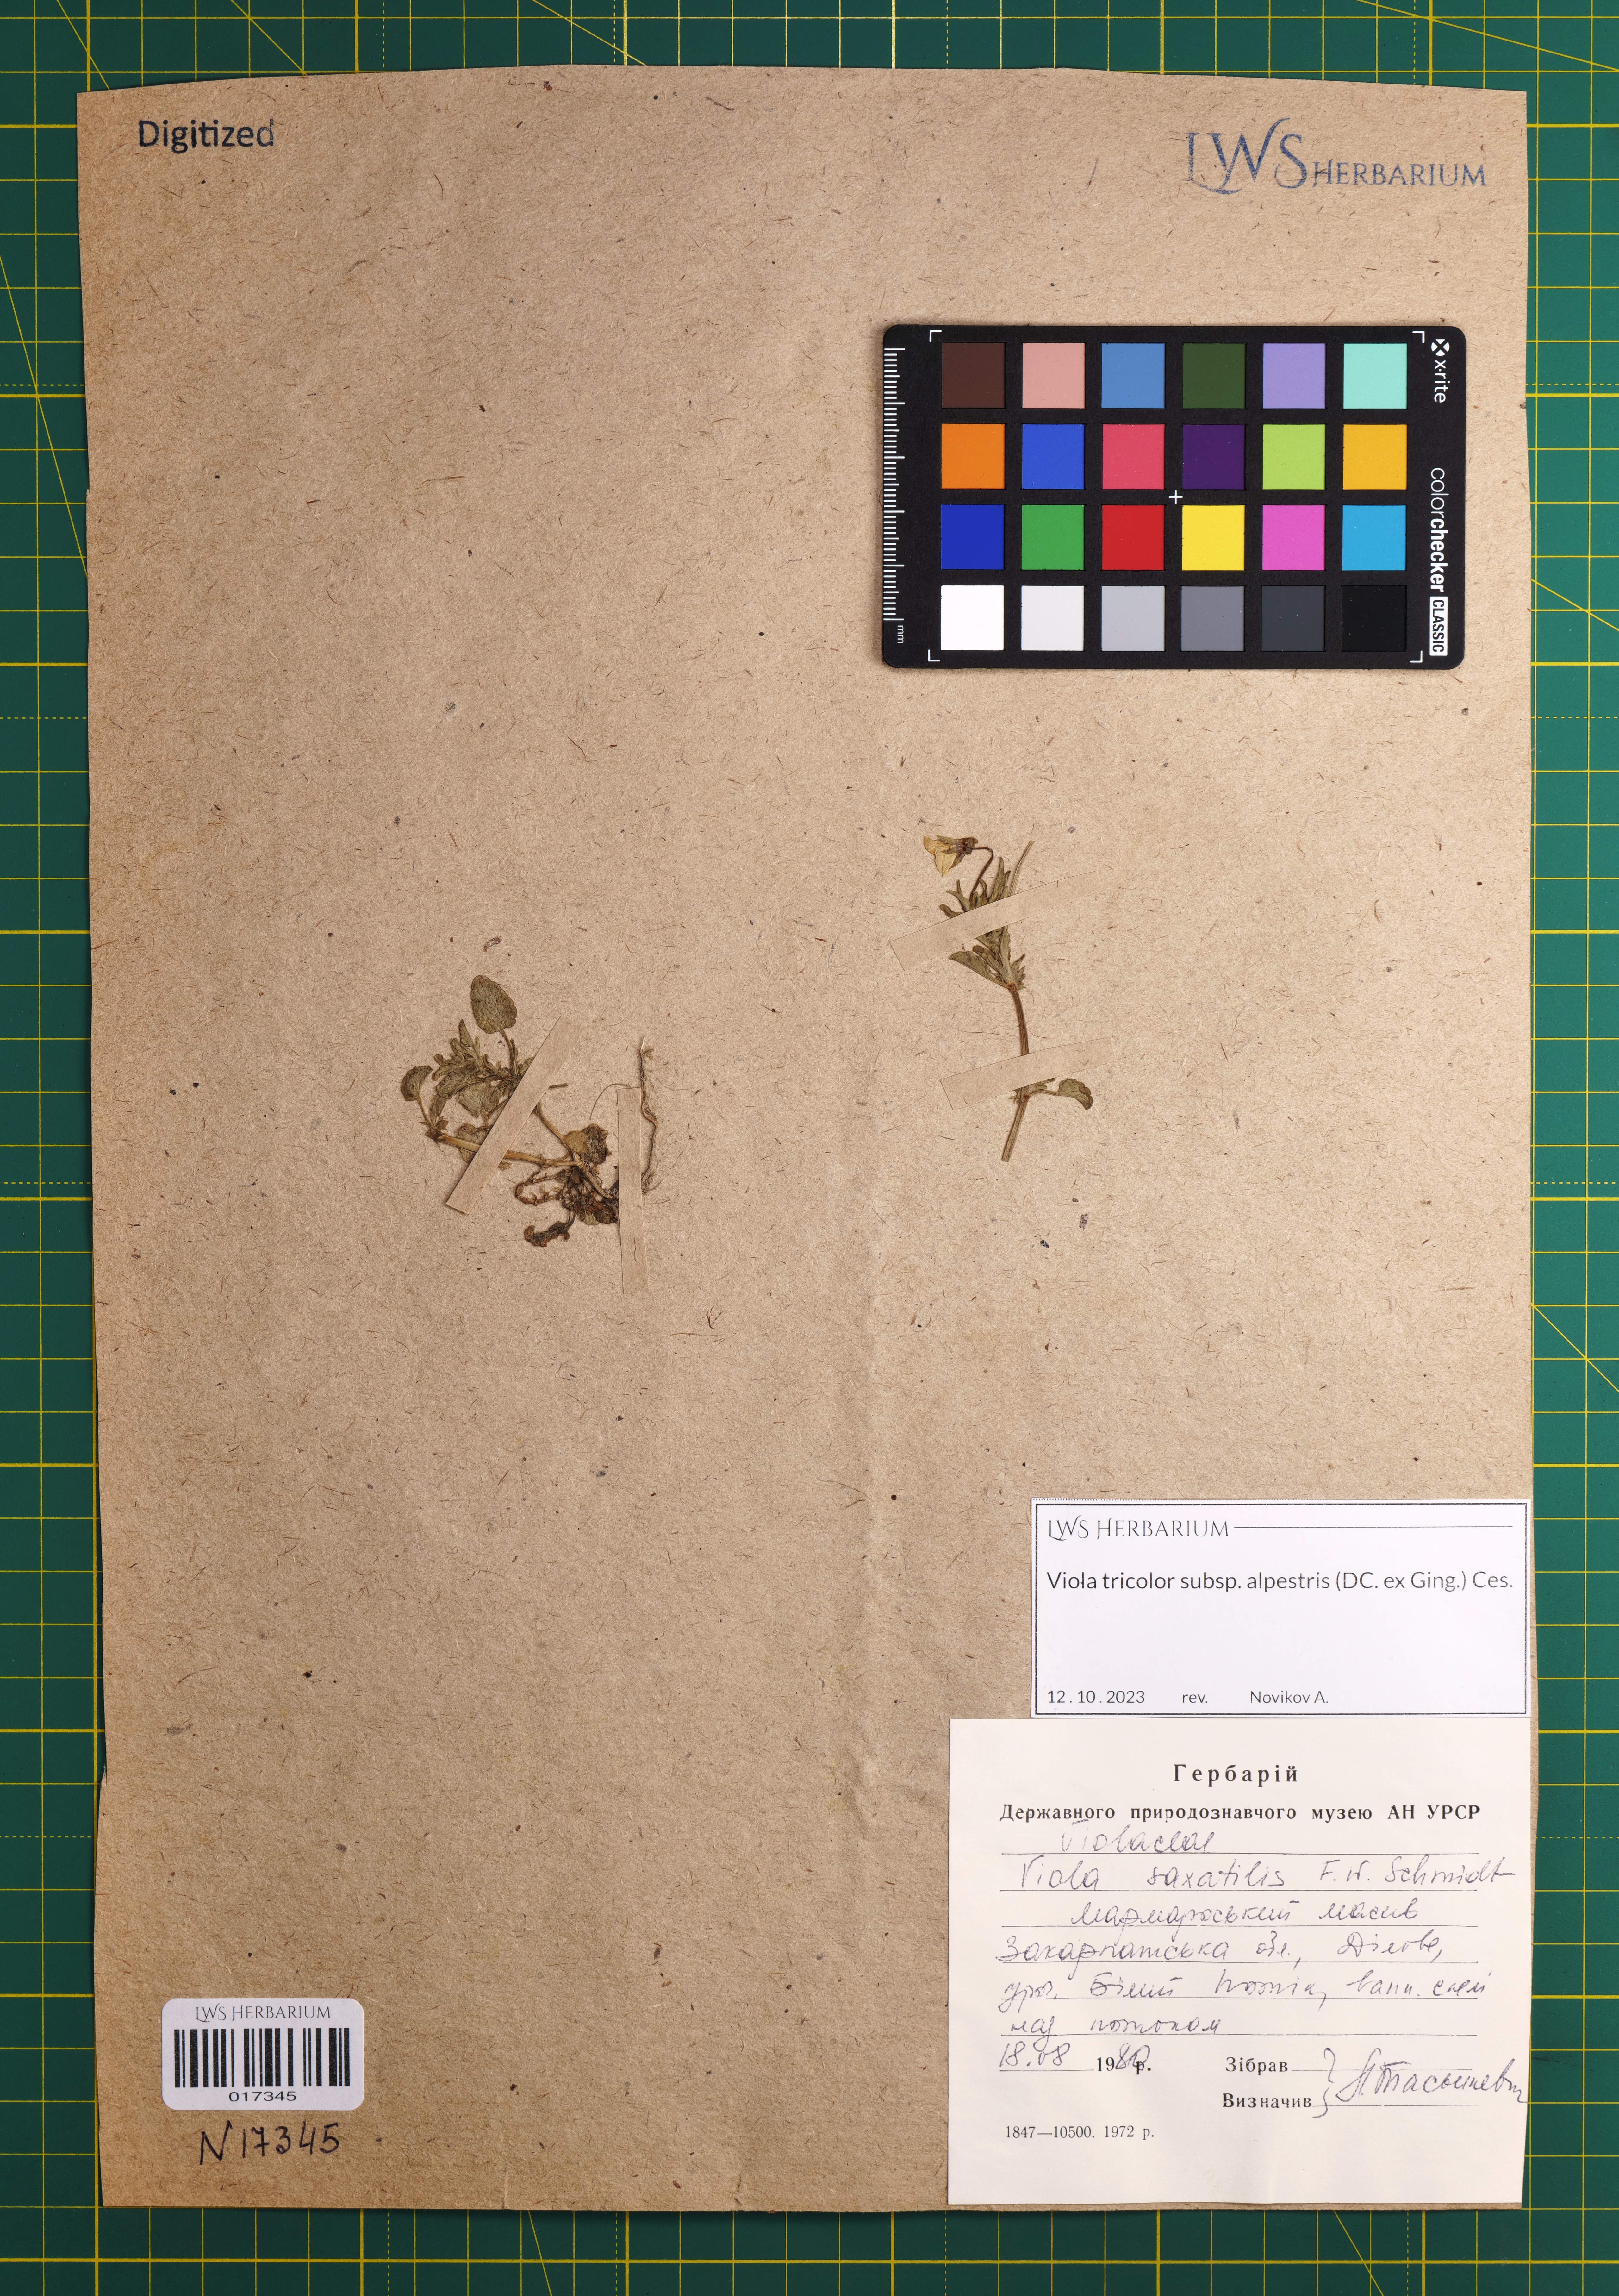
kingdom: Plantae
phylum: Tracheophyta
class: Magnoliopsida
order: Malpighiales
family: Violaceae
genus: Viola
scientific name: Viola tricolor
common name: Pansy
